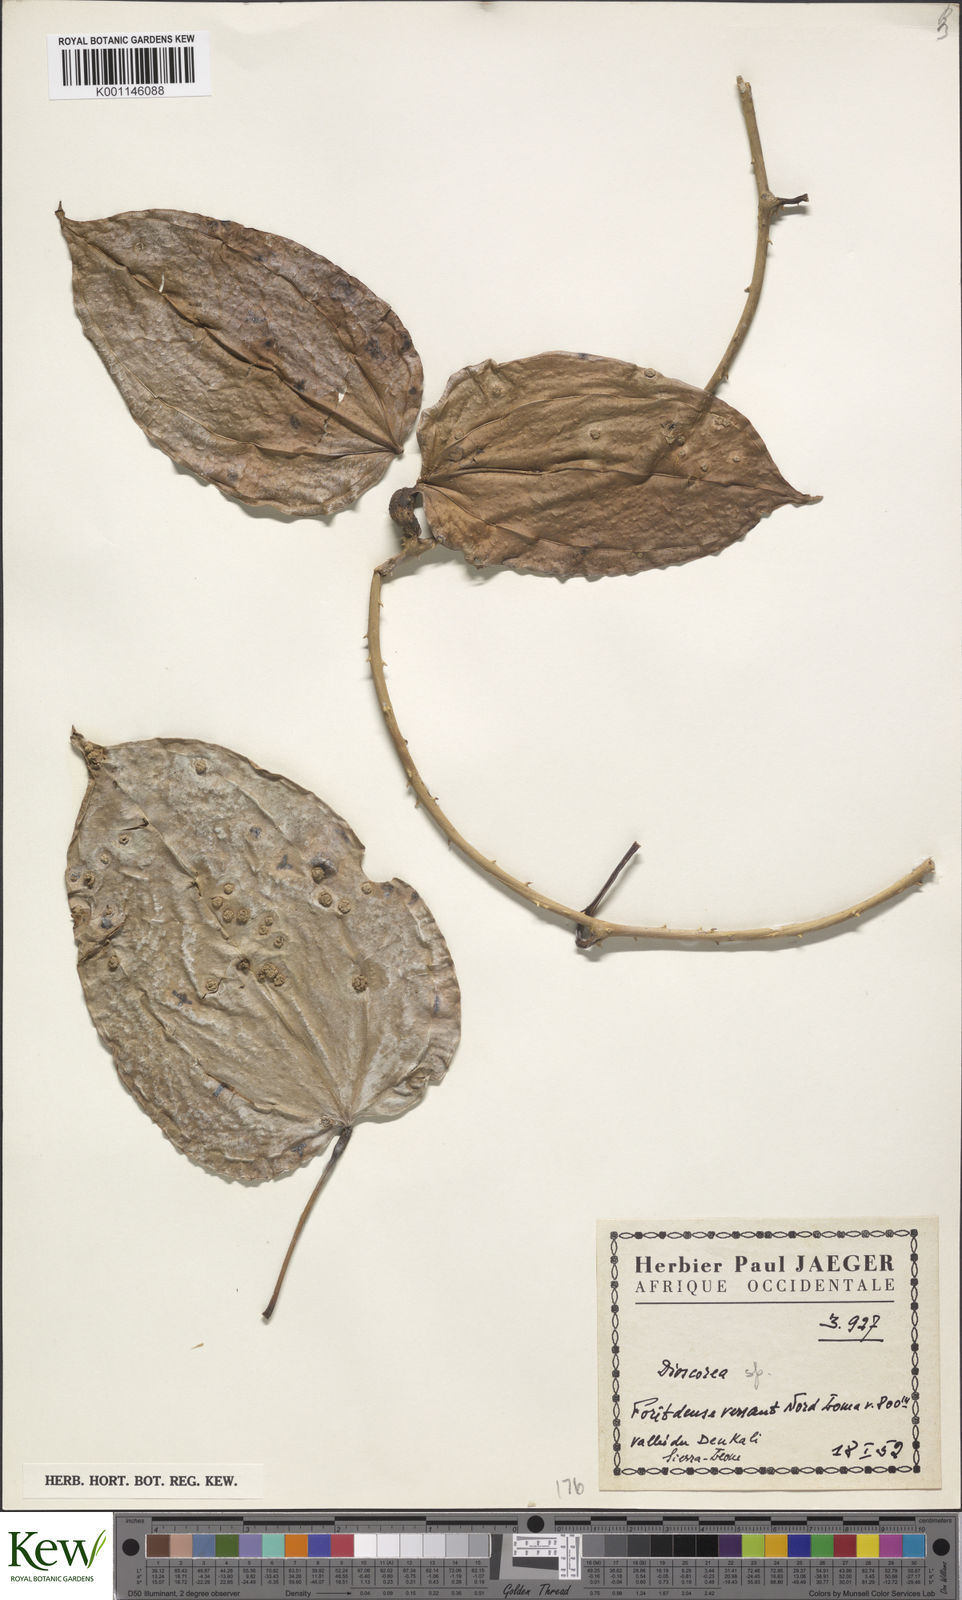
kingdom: Plantae
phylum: Tracheophyta
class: Liliopsida
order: Dioscoreales
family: Dioscoreaceae
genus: Dioscorea
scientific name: Dioscorea
